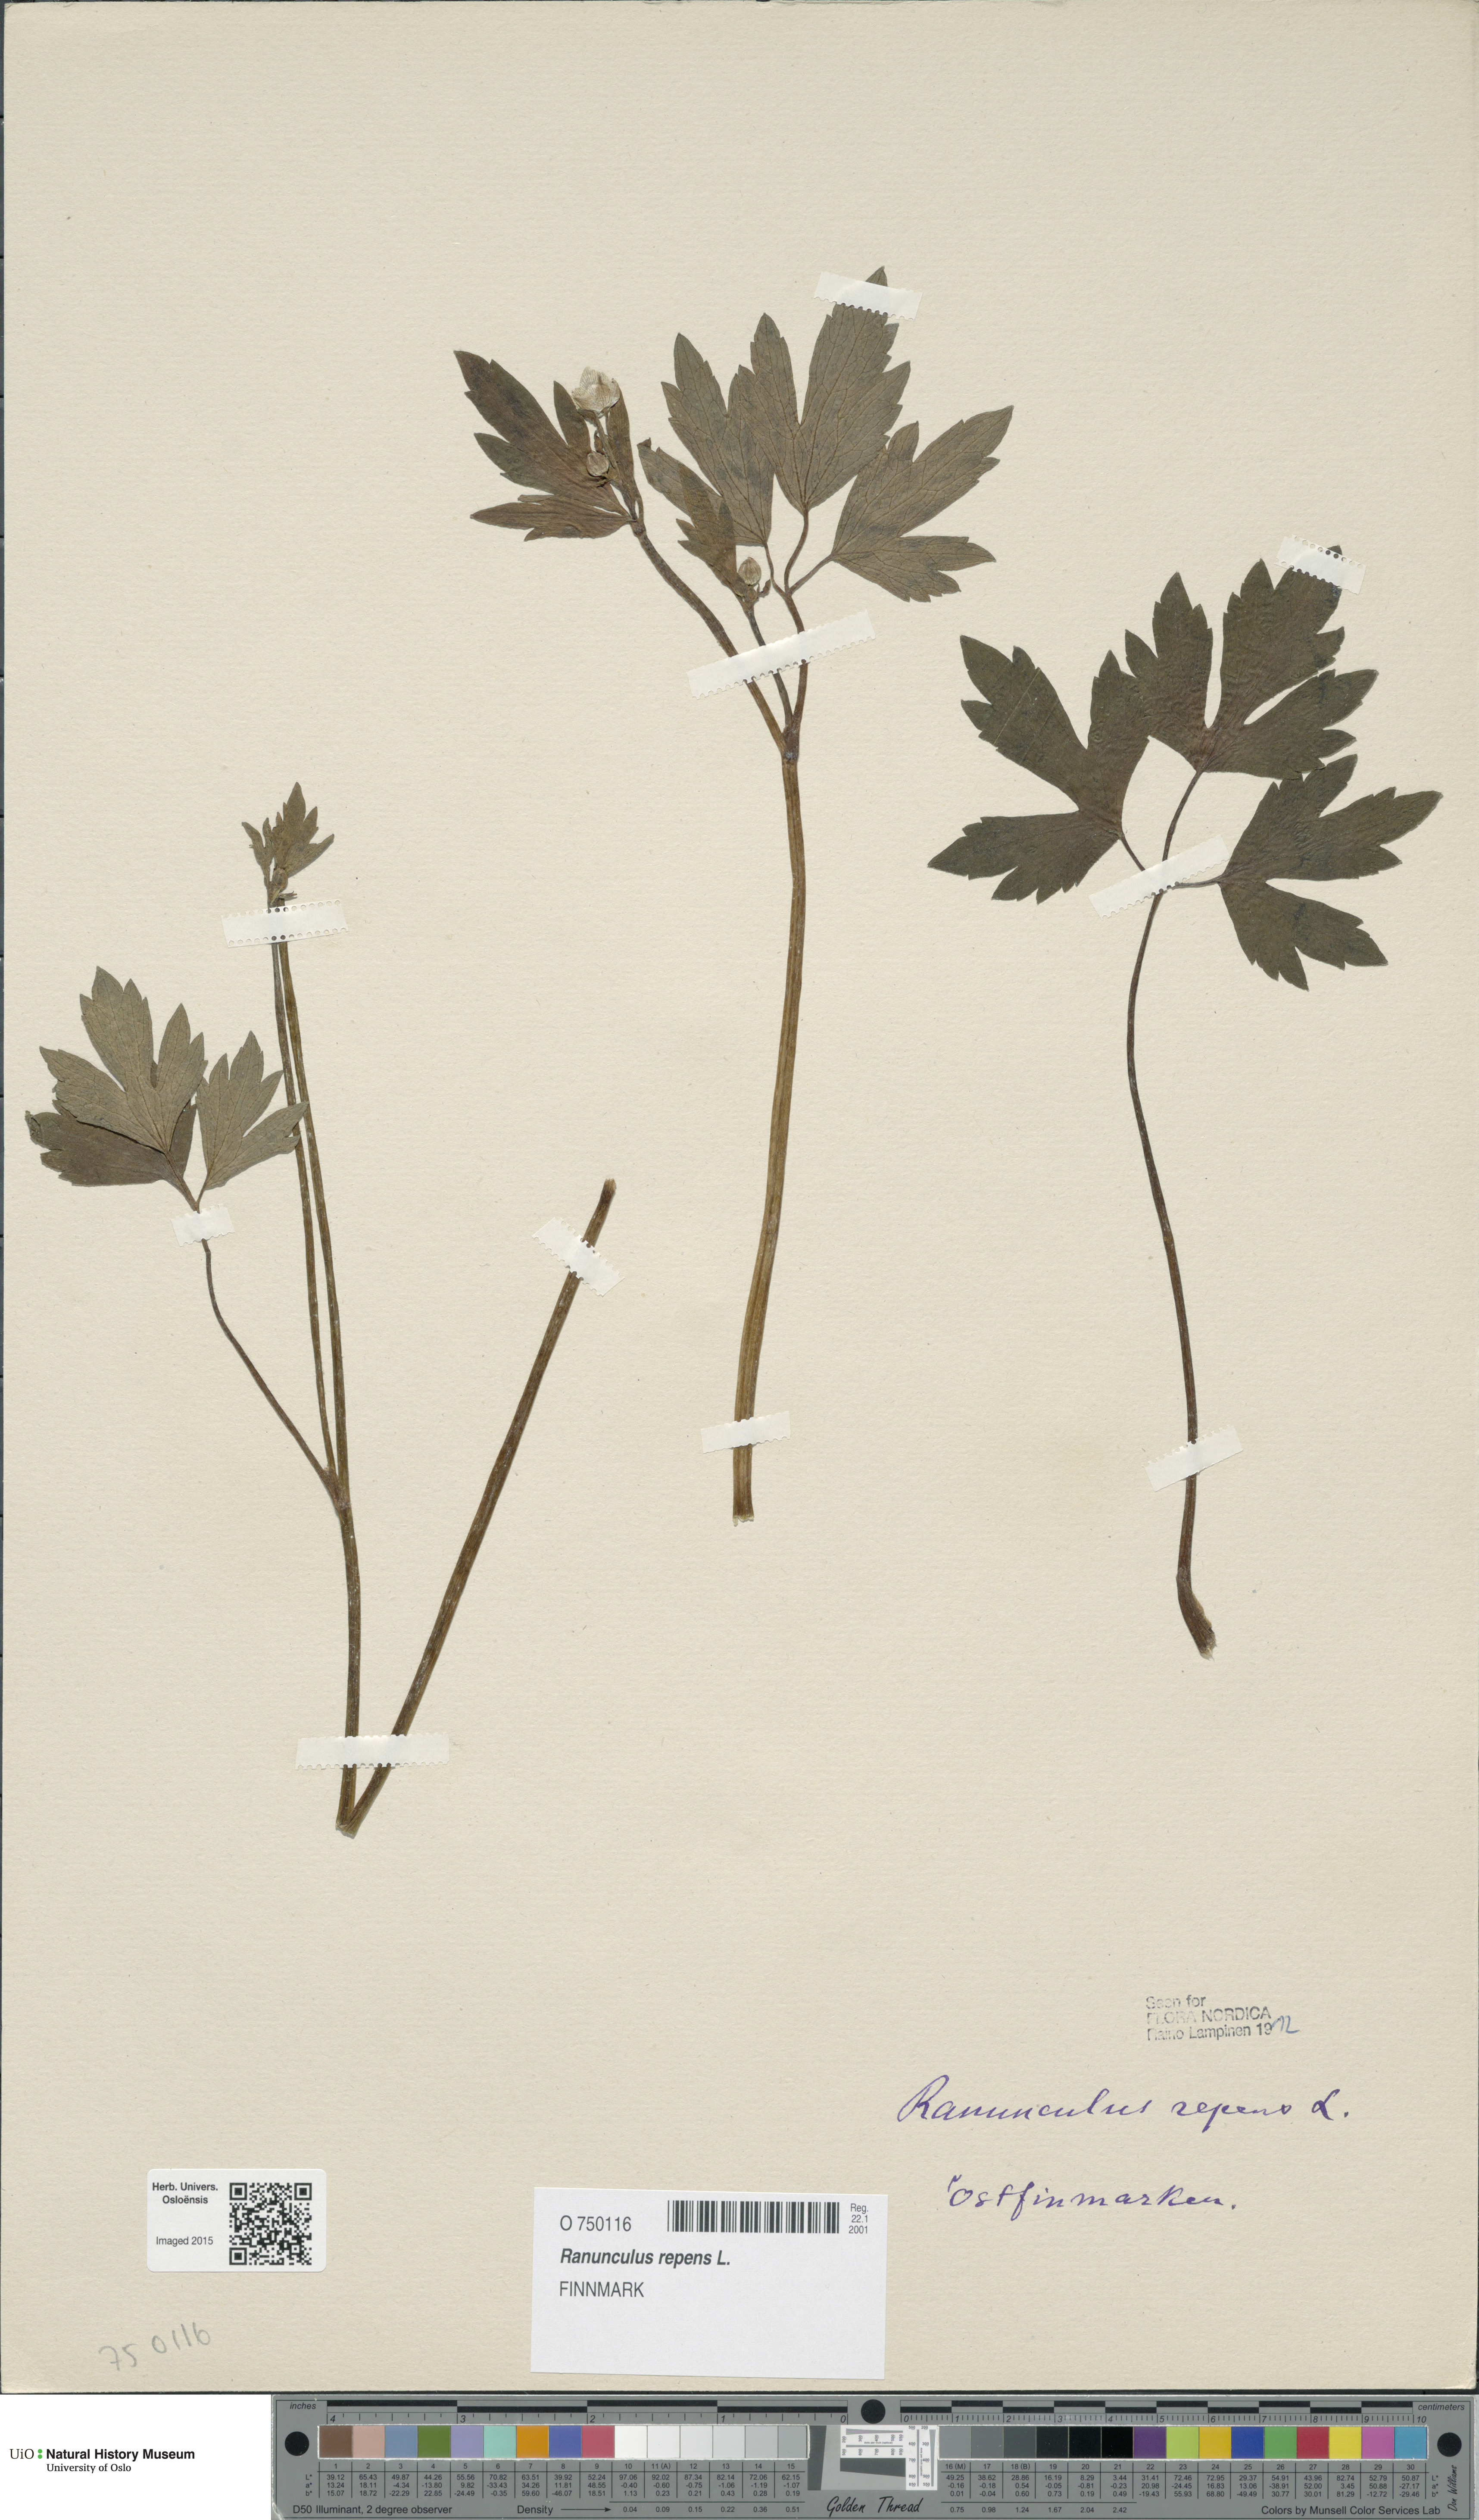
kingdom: Plantae
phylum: Tracheophyta
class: Magnoliopsida
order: Ranunculales
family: Ranunculaceae
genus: Ranunculus
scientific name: Ranunculus repens
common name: Creeping buttercup
